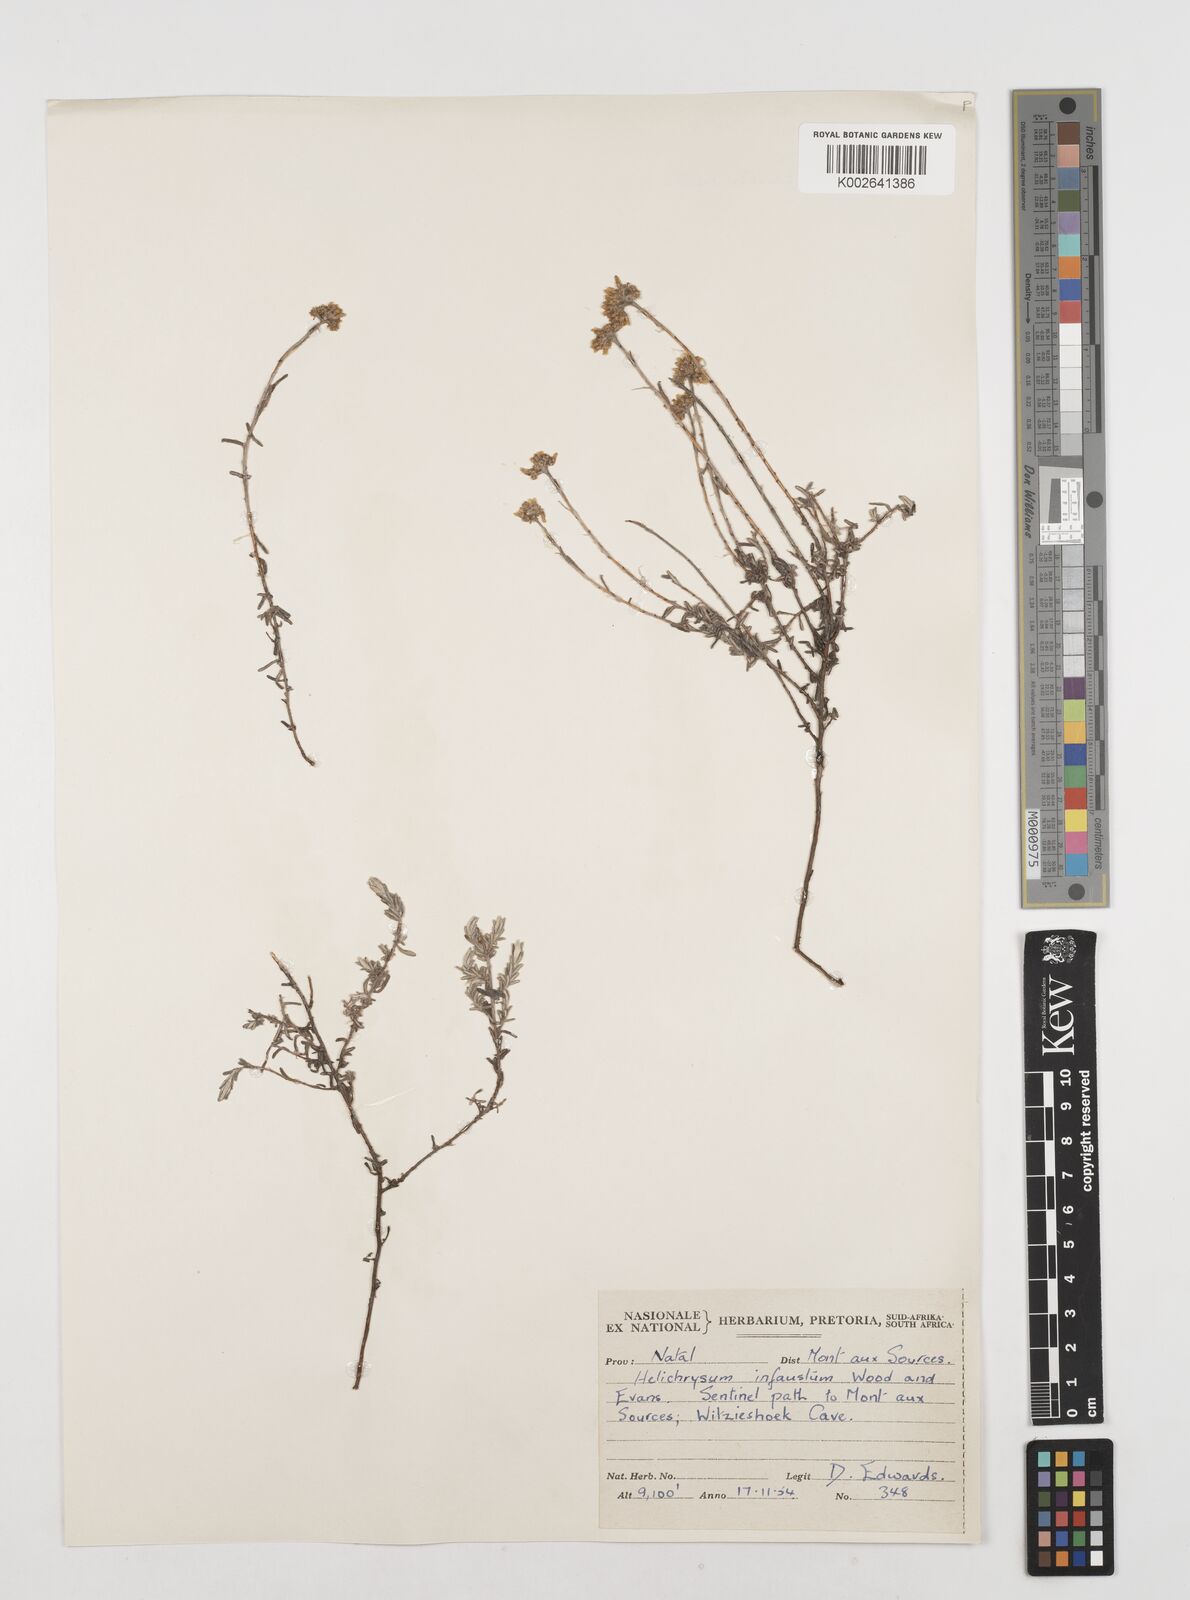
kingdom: Plantae
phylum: Tracheophyta
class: Magnoliopsida
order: Asterales
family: Asteraceae
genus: Calomeria
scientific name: Calomeria infausta
